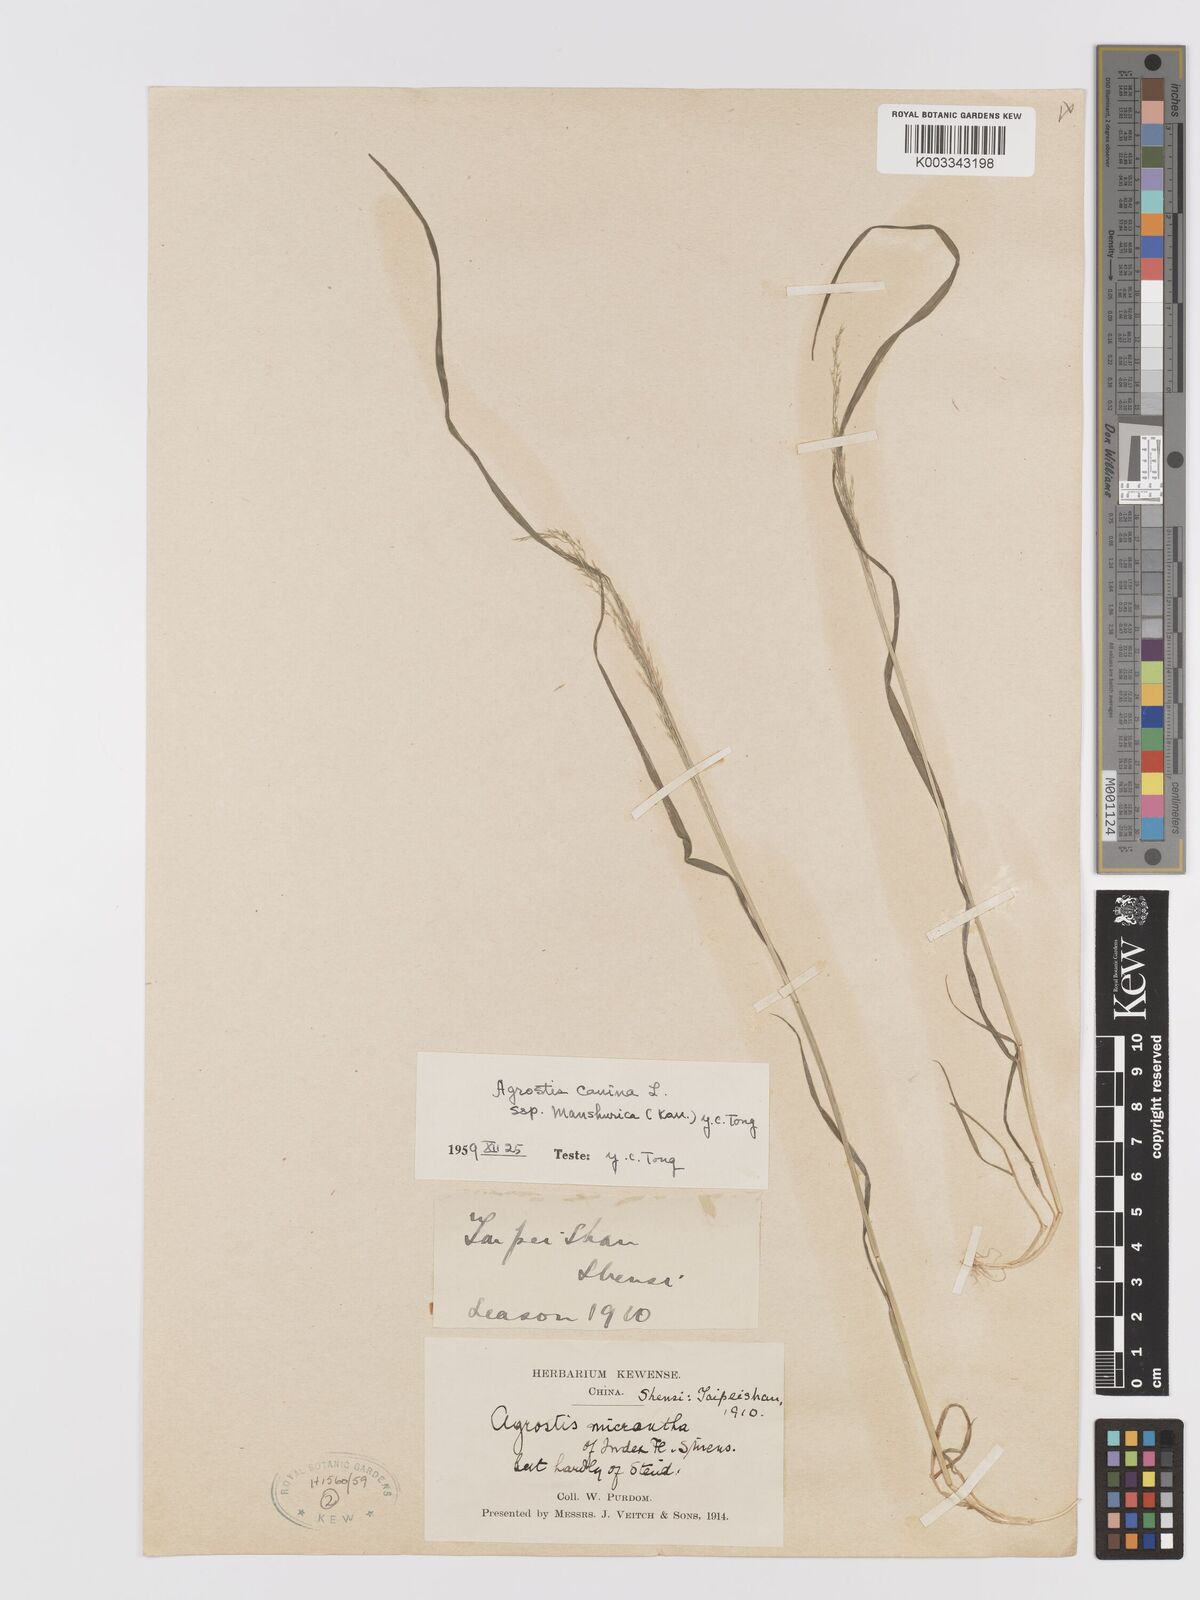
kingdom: Plantae
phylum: Tracheophyta
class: Liliopsida
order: Poales
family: Poaceae
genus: Agrostis
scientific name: Agrostis canina
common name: Velvet bent
